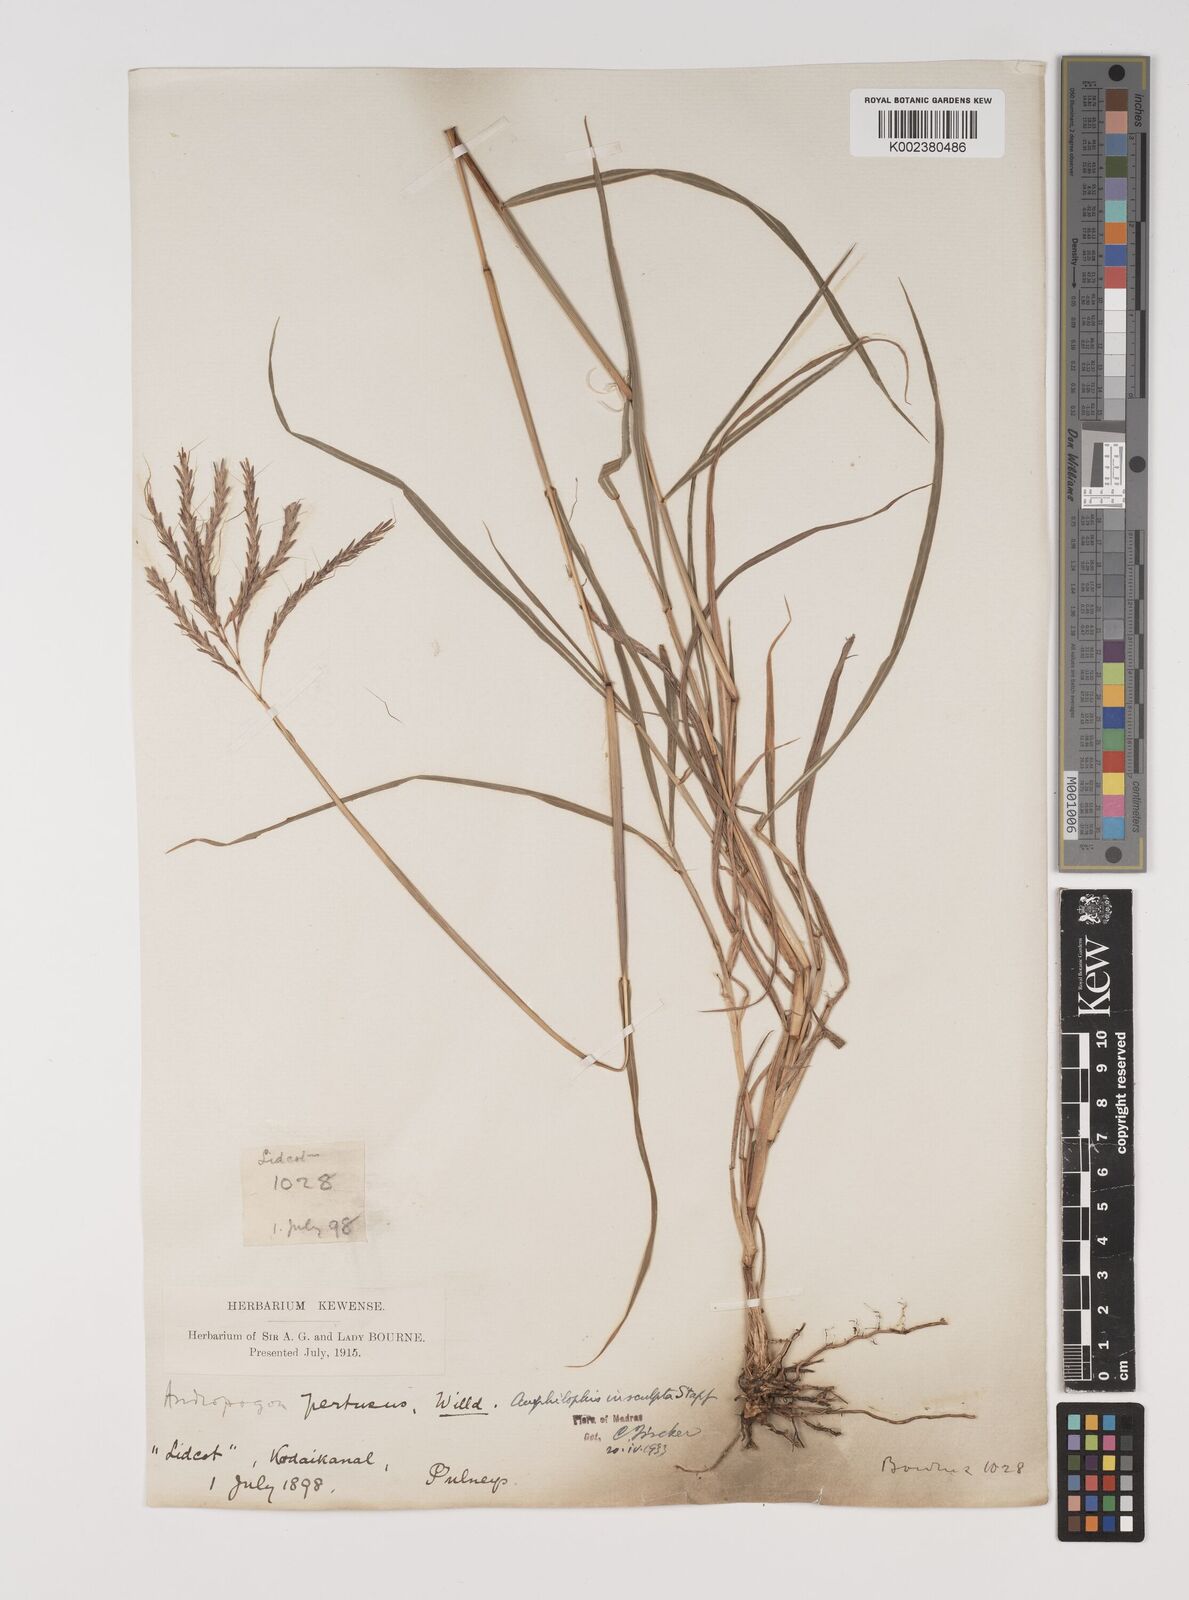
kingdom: Plantae
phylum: Tracheophyta
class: Liliopsida
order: Poales
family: Poaceae
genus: Bothriochloa
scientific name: Bothriochloa insculpta
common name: Creeping-bluegrass
